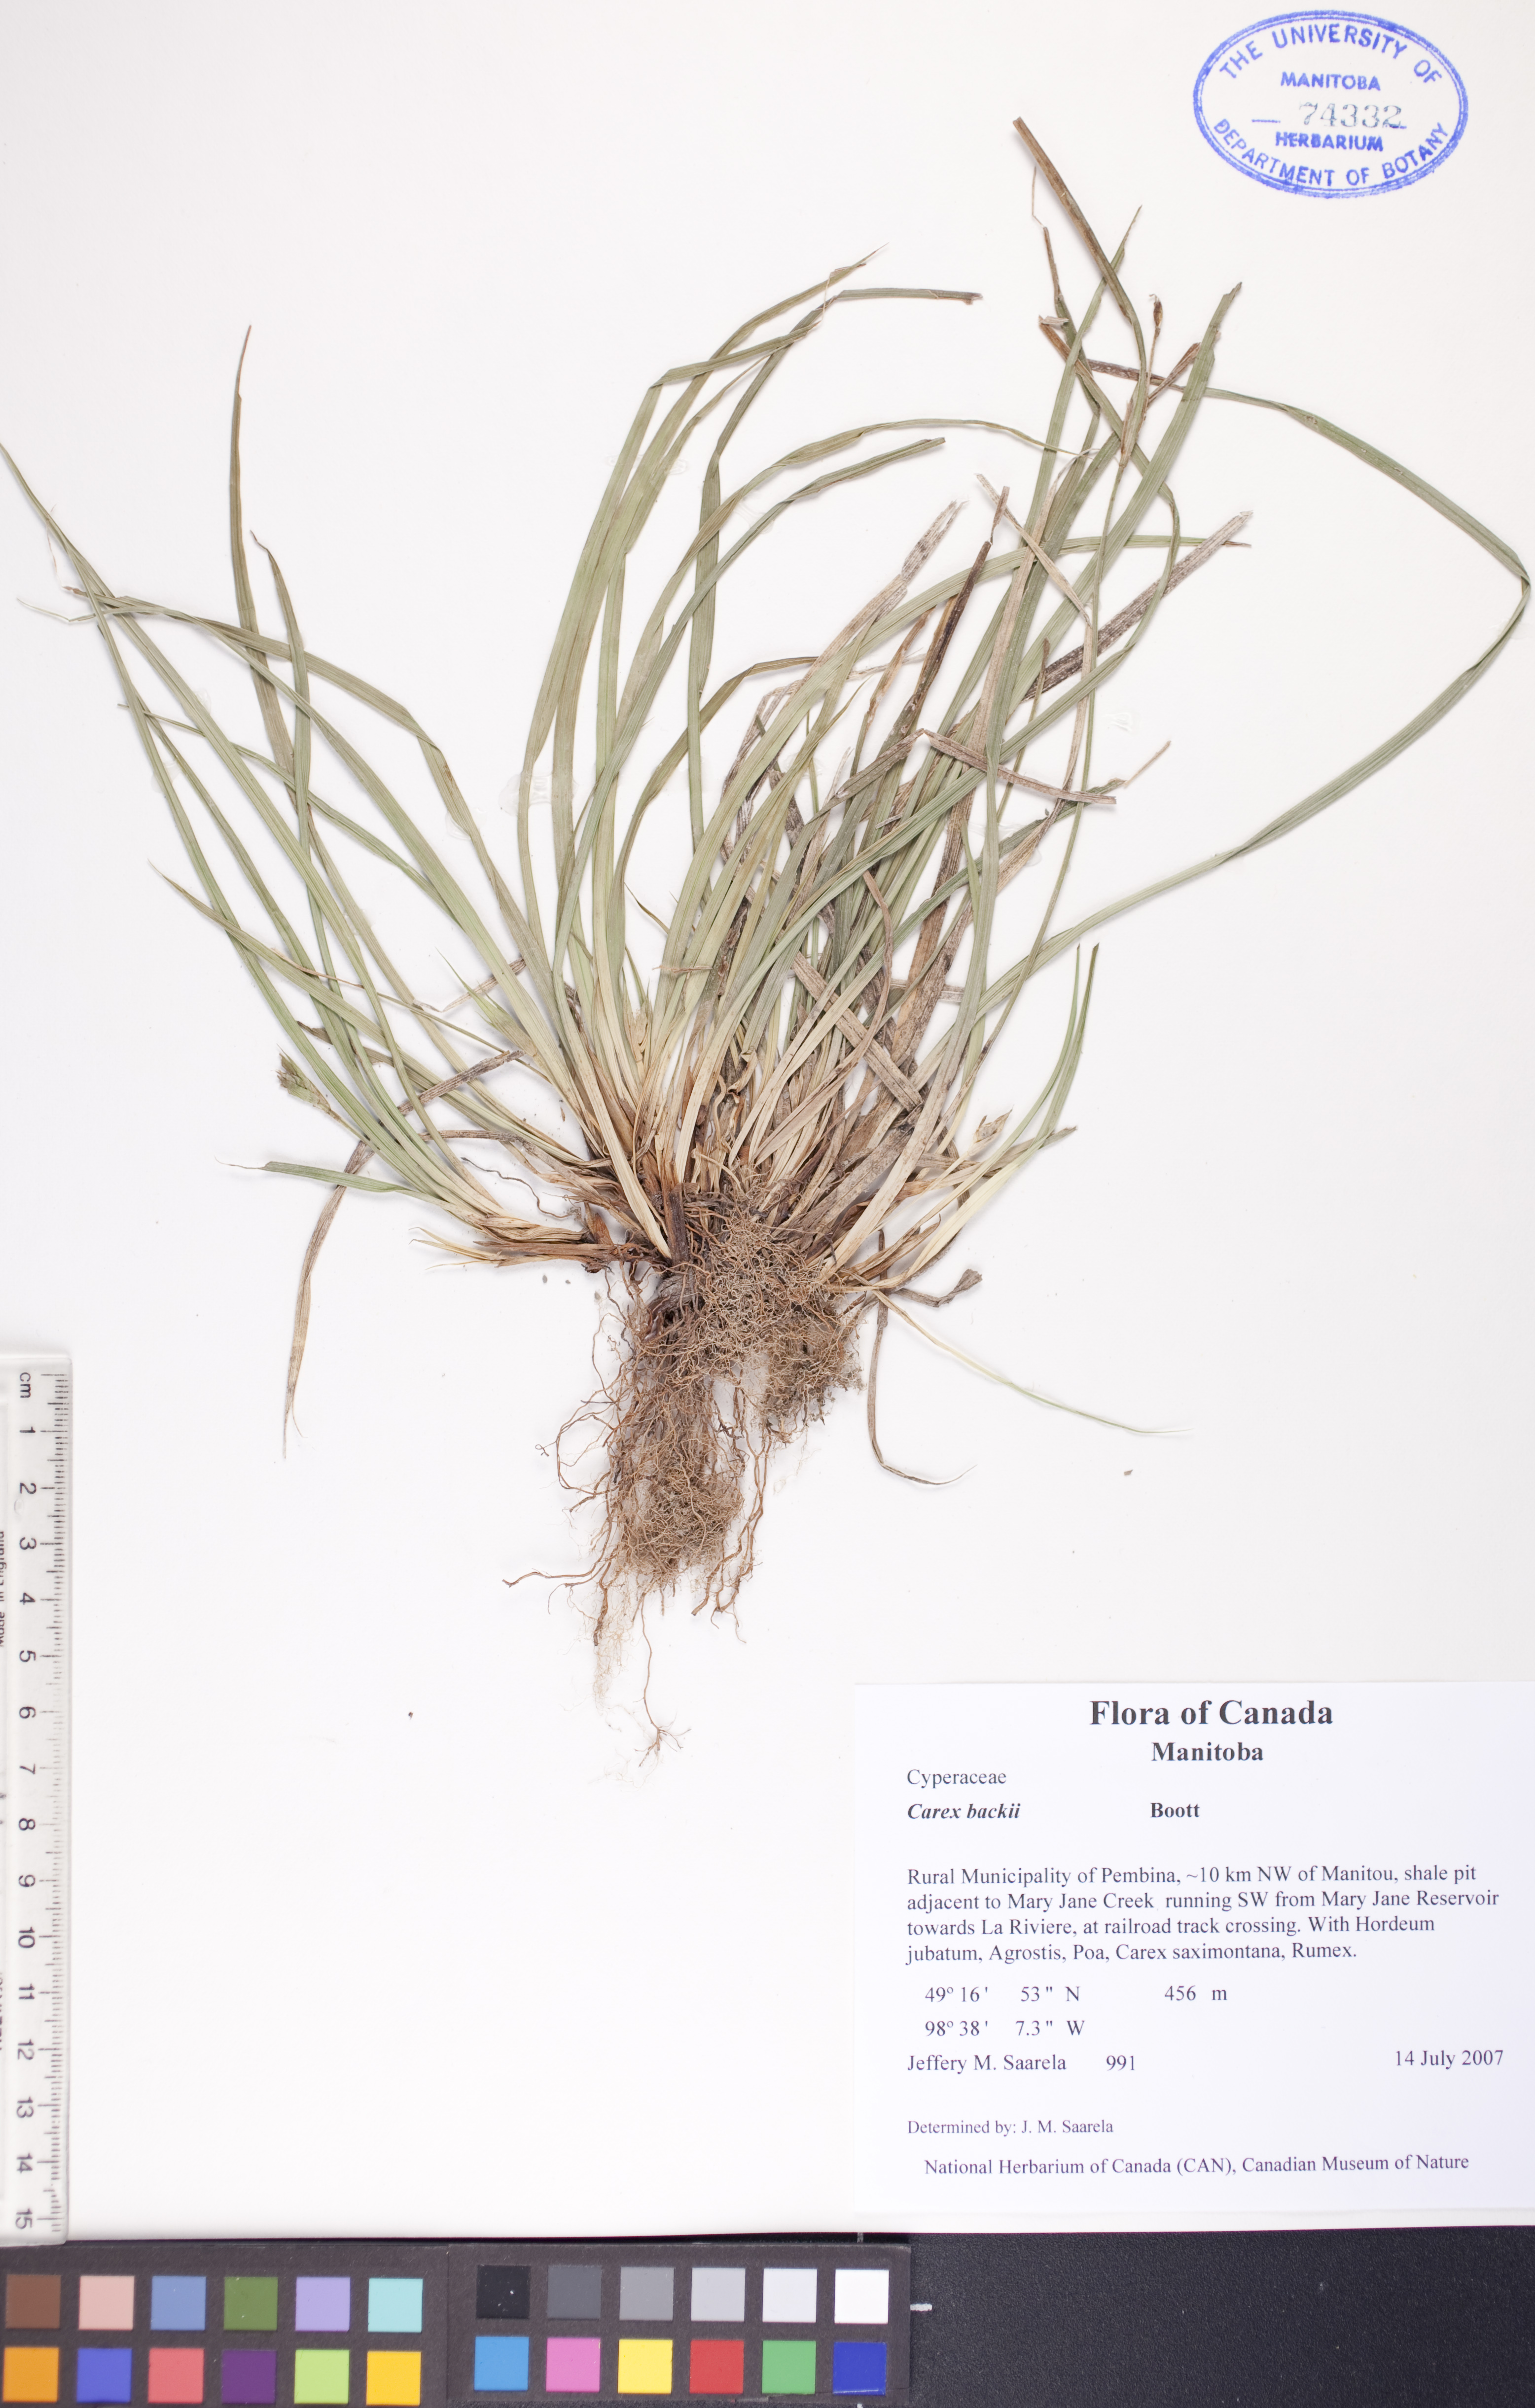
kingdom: Plantae
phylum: Tracheophyta
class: Liliopsida
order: Poales
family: Cyperaceae
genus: Carex
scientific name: Carex backii
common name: Back's sedge
